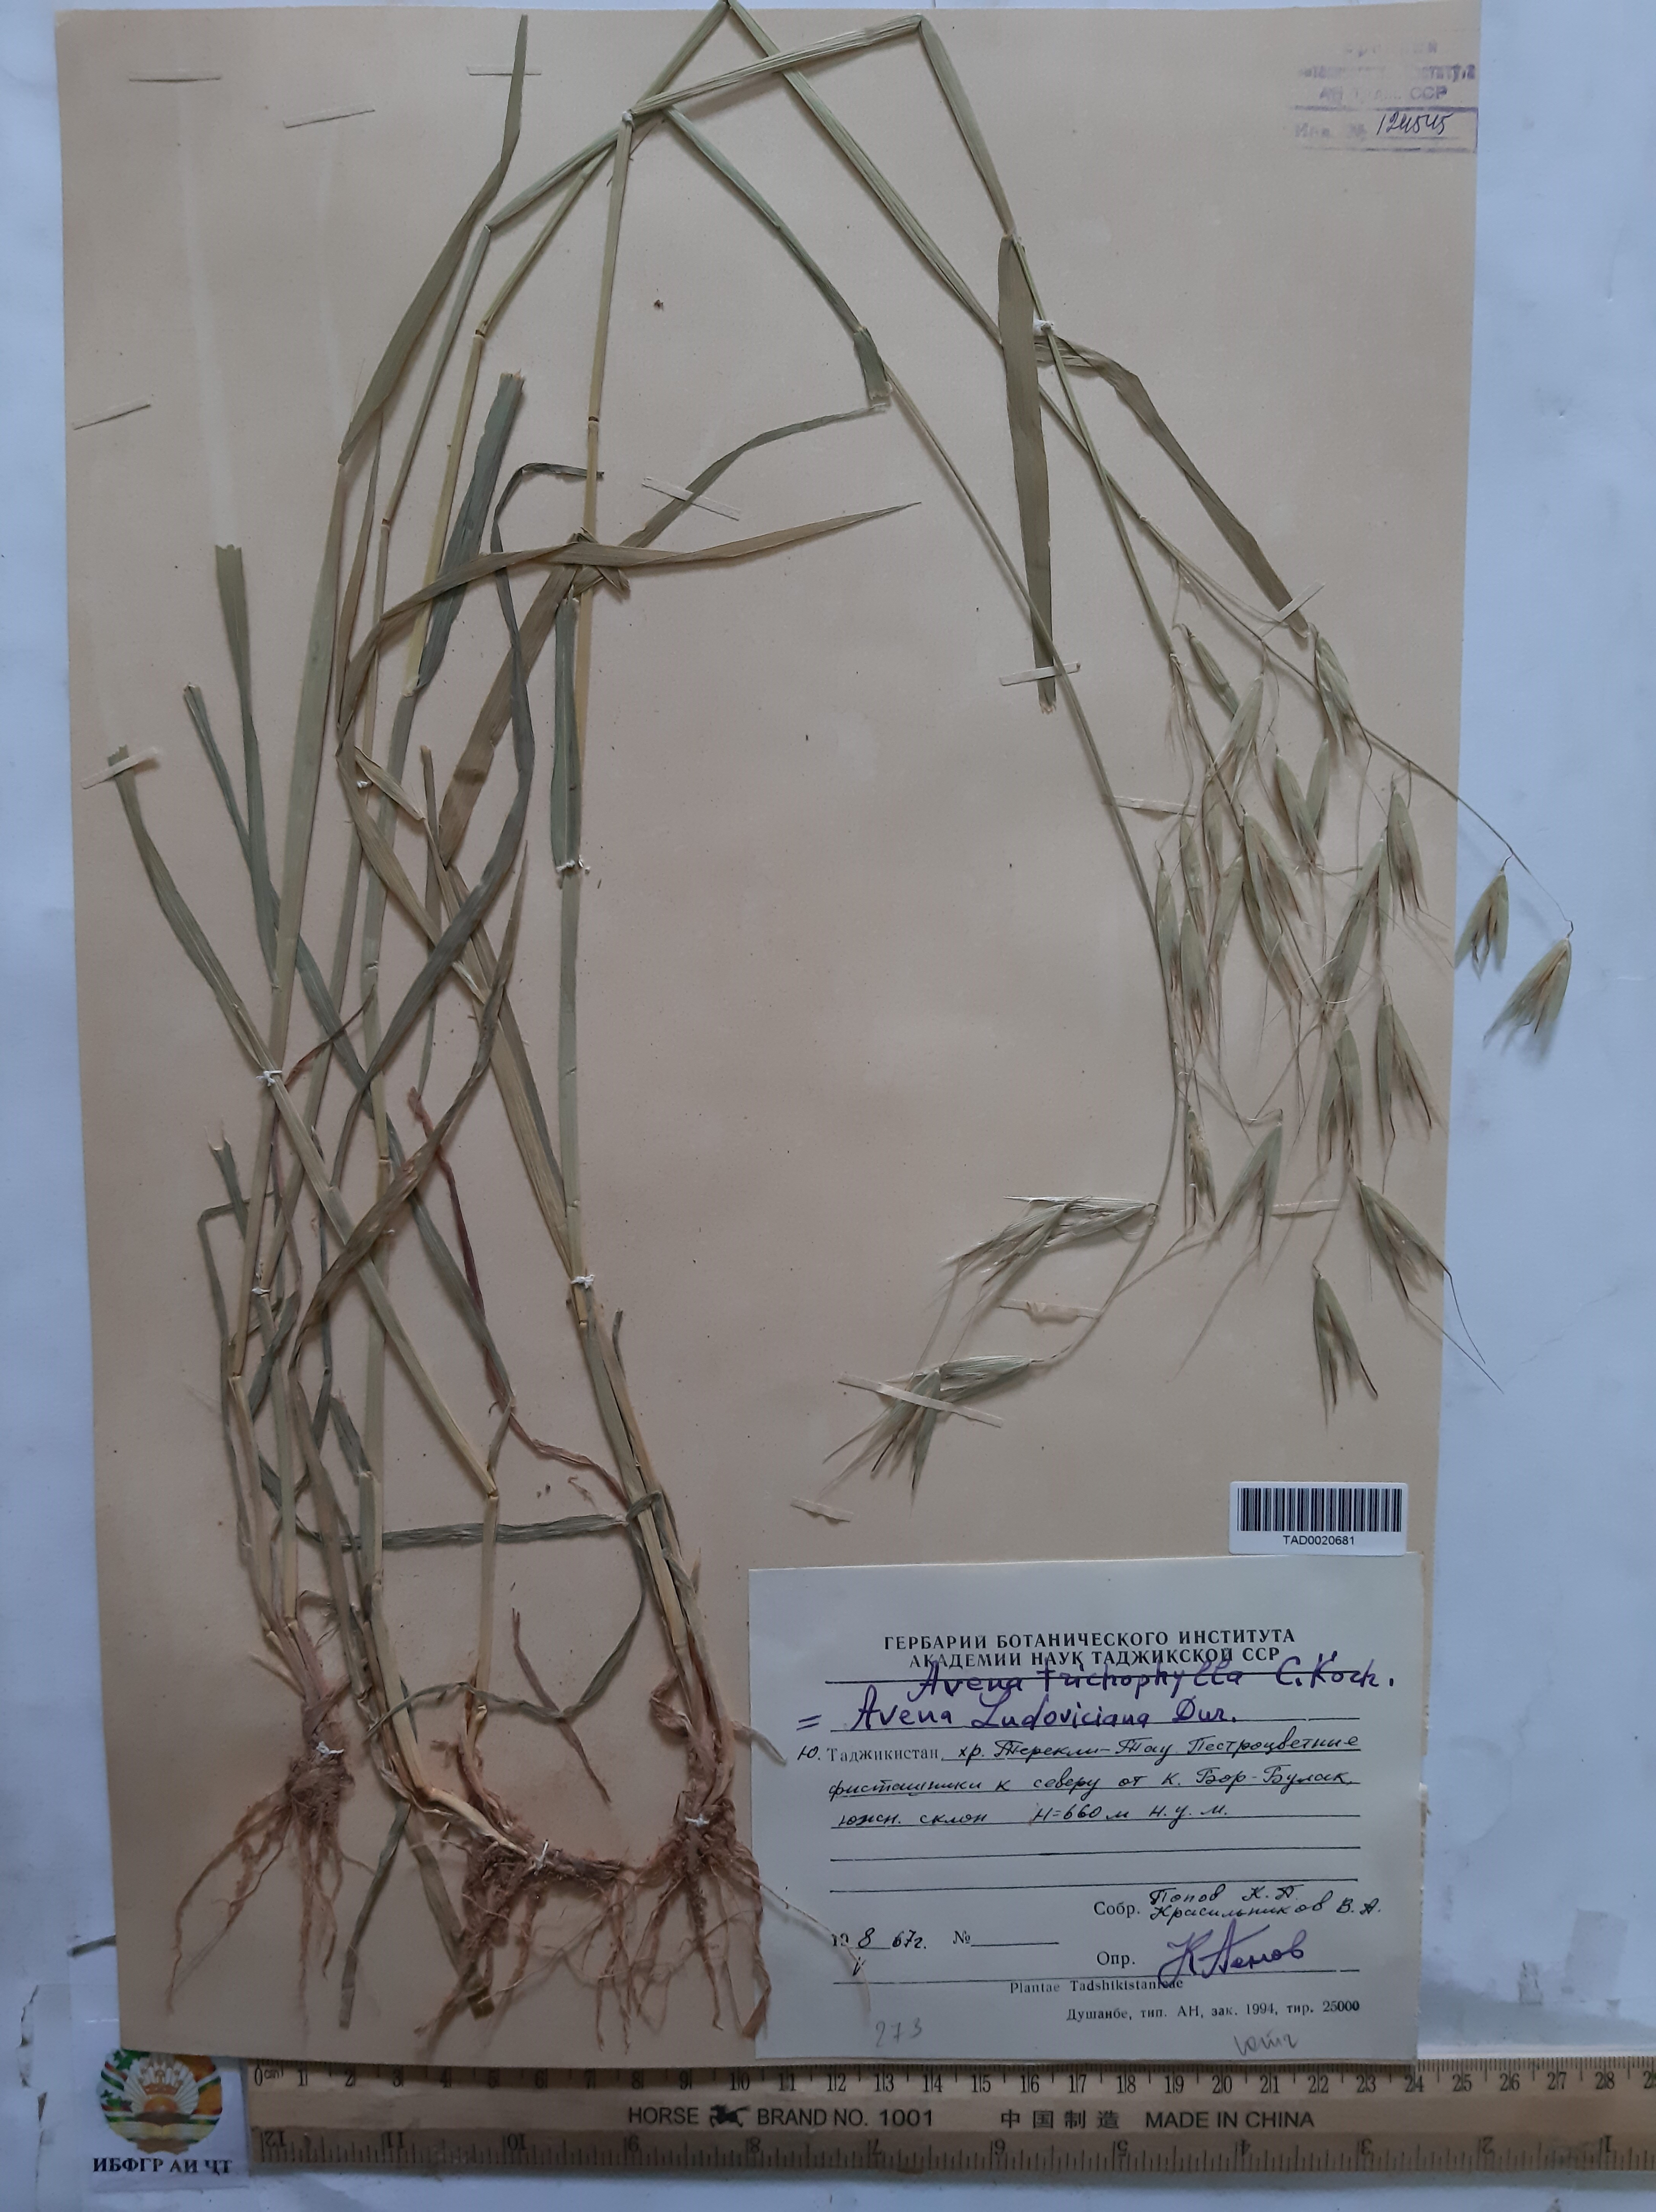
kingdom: Plantae
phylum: Tracheophyta
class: Liliopsida
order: Poales
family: Poaceae
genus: Avena
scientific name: Avena sterilis
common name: Animated oat
